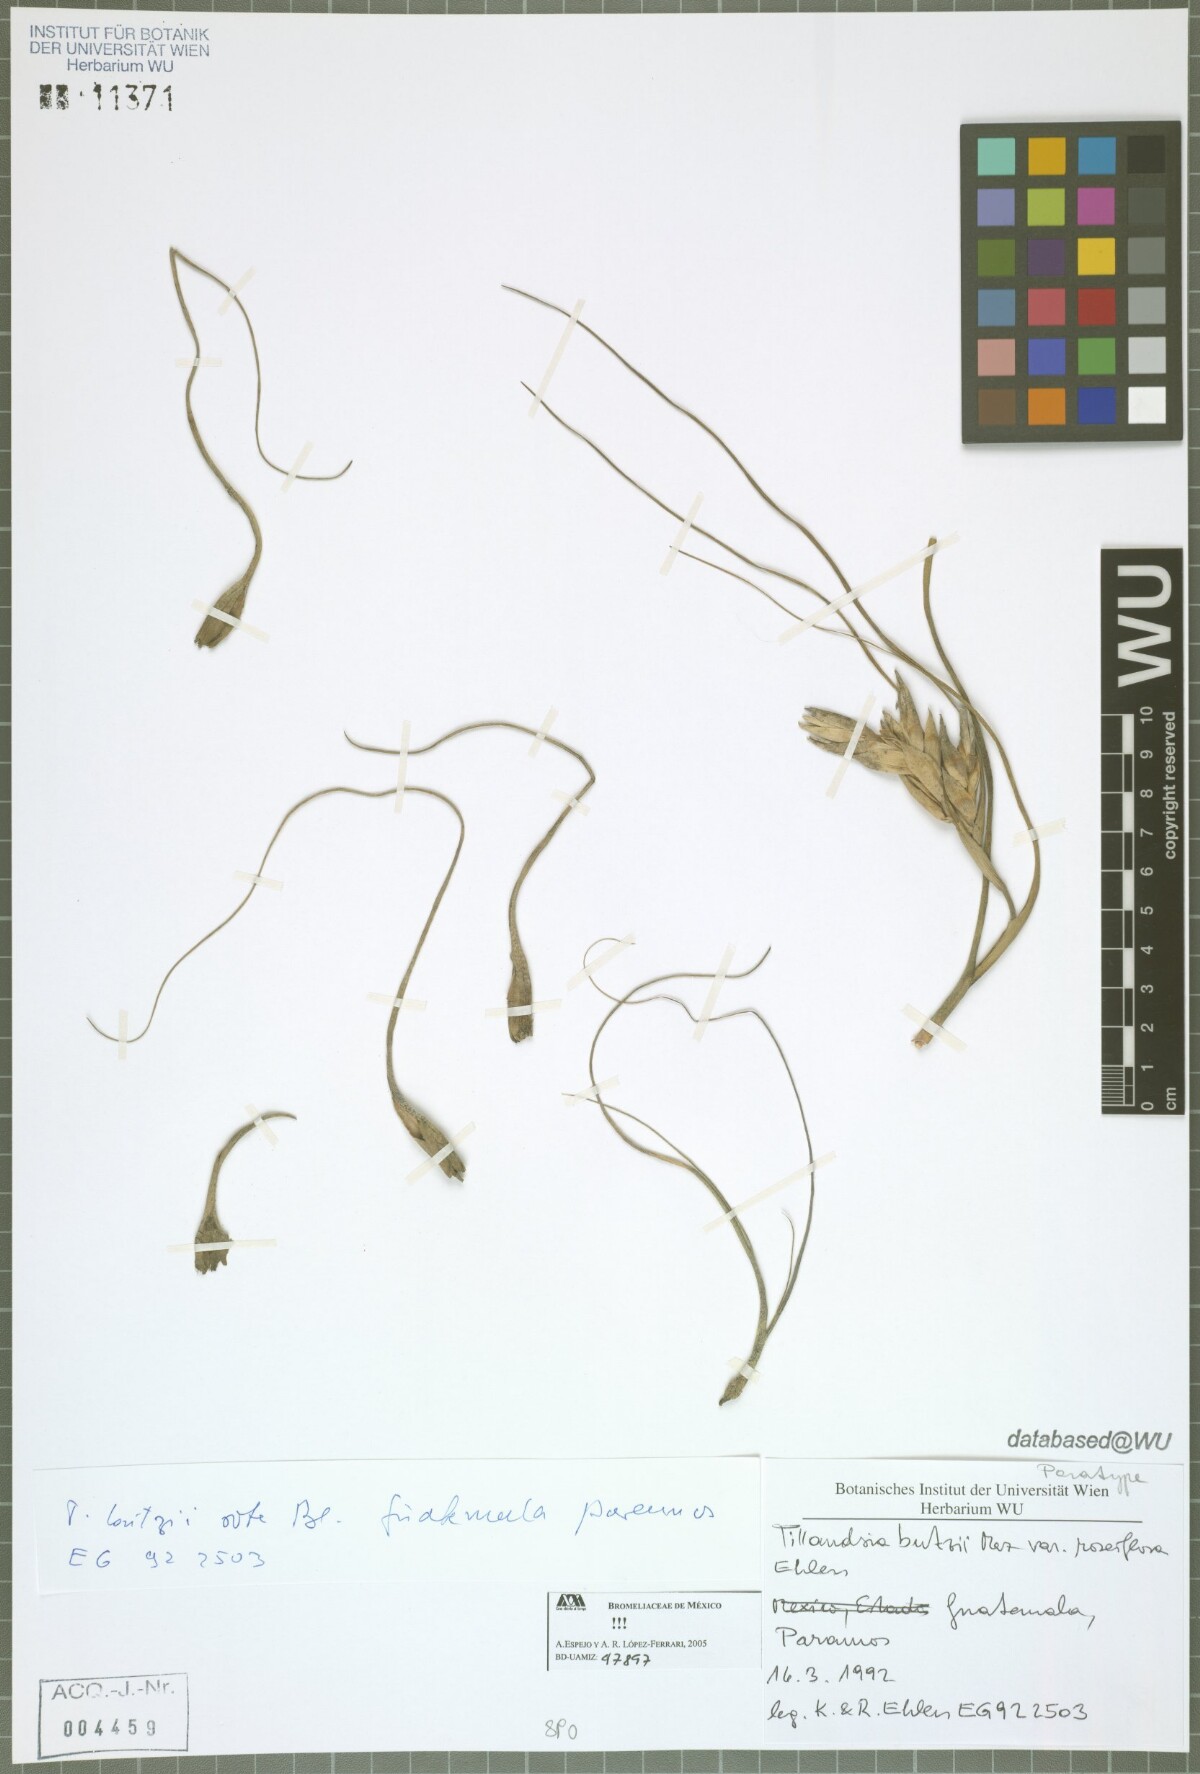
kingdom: Plantae
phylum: Tracheophyta
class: Liliopsida
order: Poales
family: Bromeliaceae
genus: Tillandsia
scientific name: Tillandsia butzii
